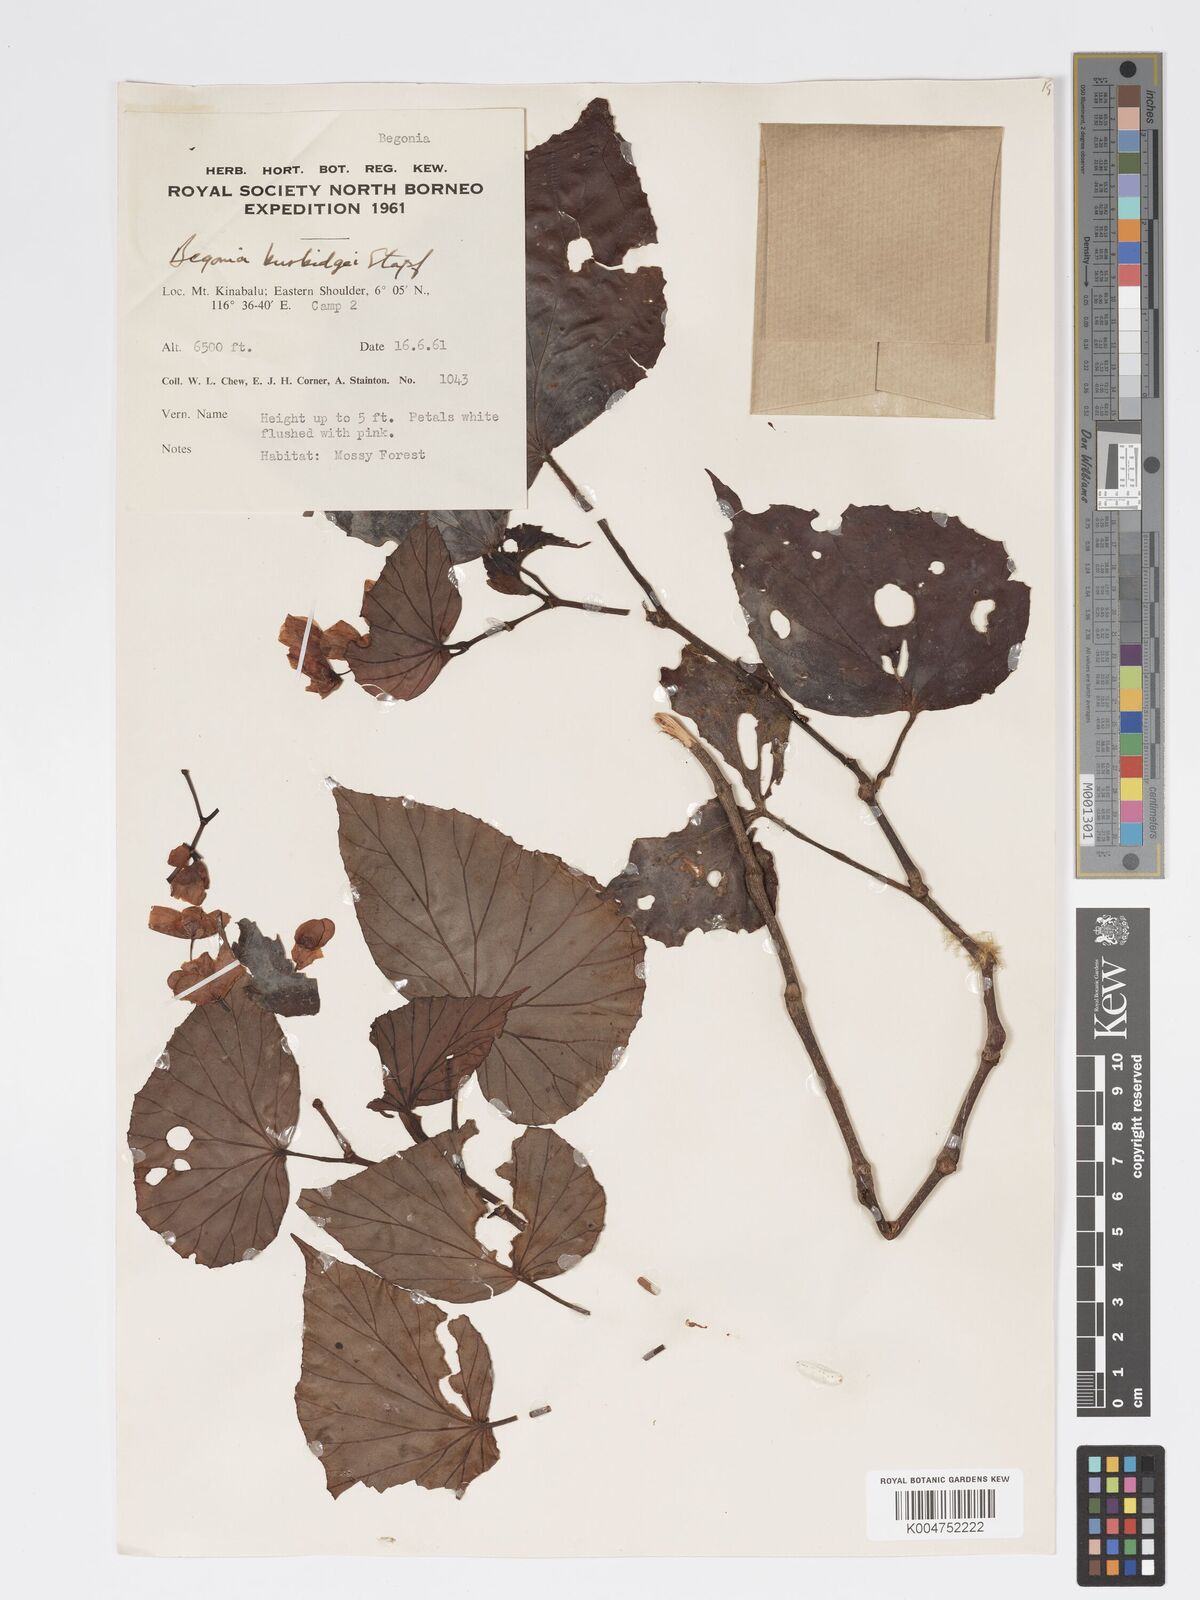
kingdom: Plantae
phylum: Tracheophyta
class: Magnoliopsida
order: Cucurbitales
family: Begoniaceae
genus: Begonia
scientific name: Begonia burbidgei
